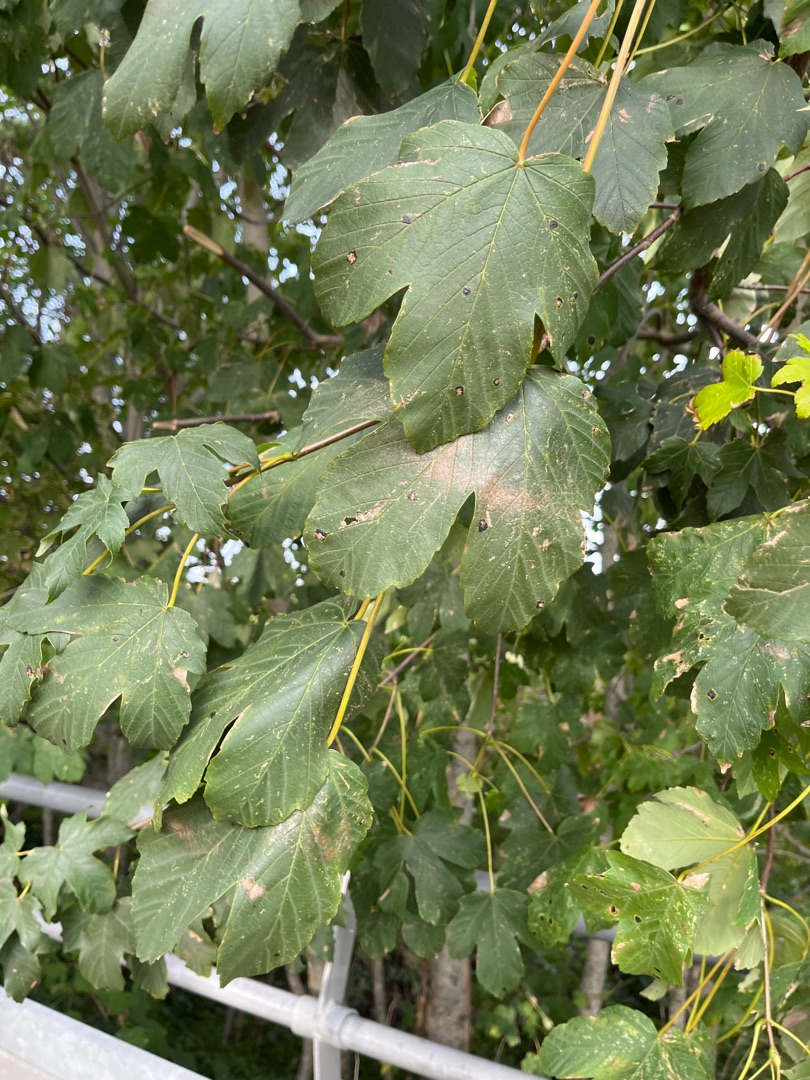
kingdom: Plantae
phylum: Tracheophyta
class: Magnoliopsida
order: Sapindales
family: Sapindaceae
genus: Acer
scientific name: Acer pseudoplatanus
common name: Ahorn
